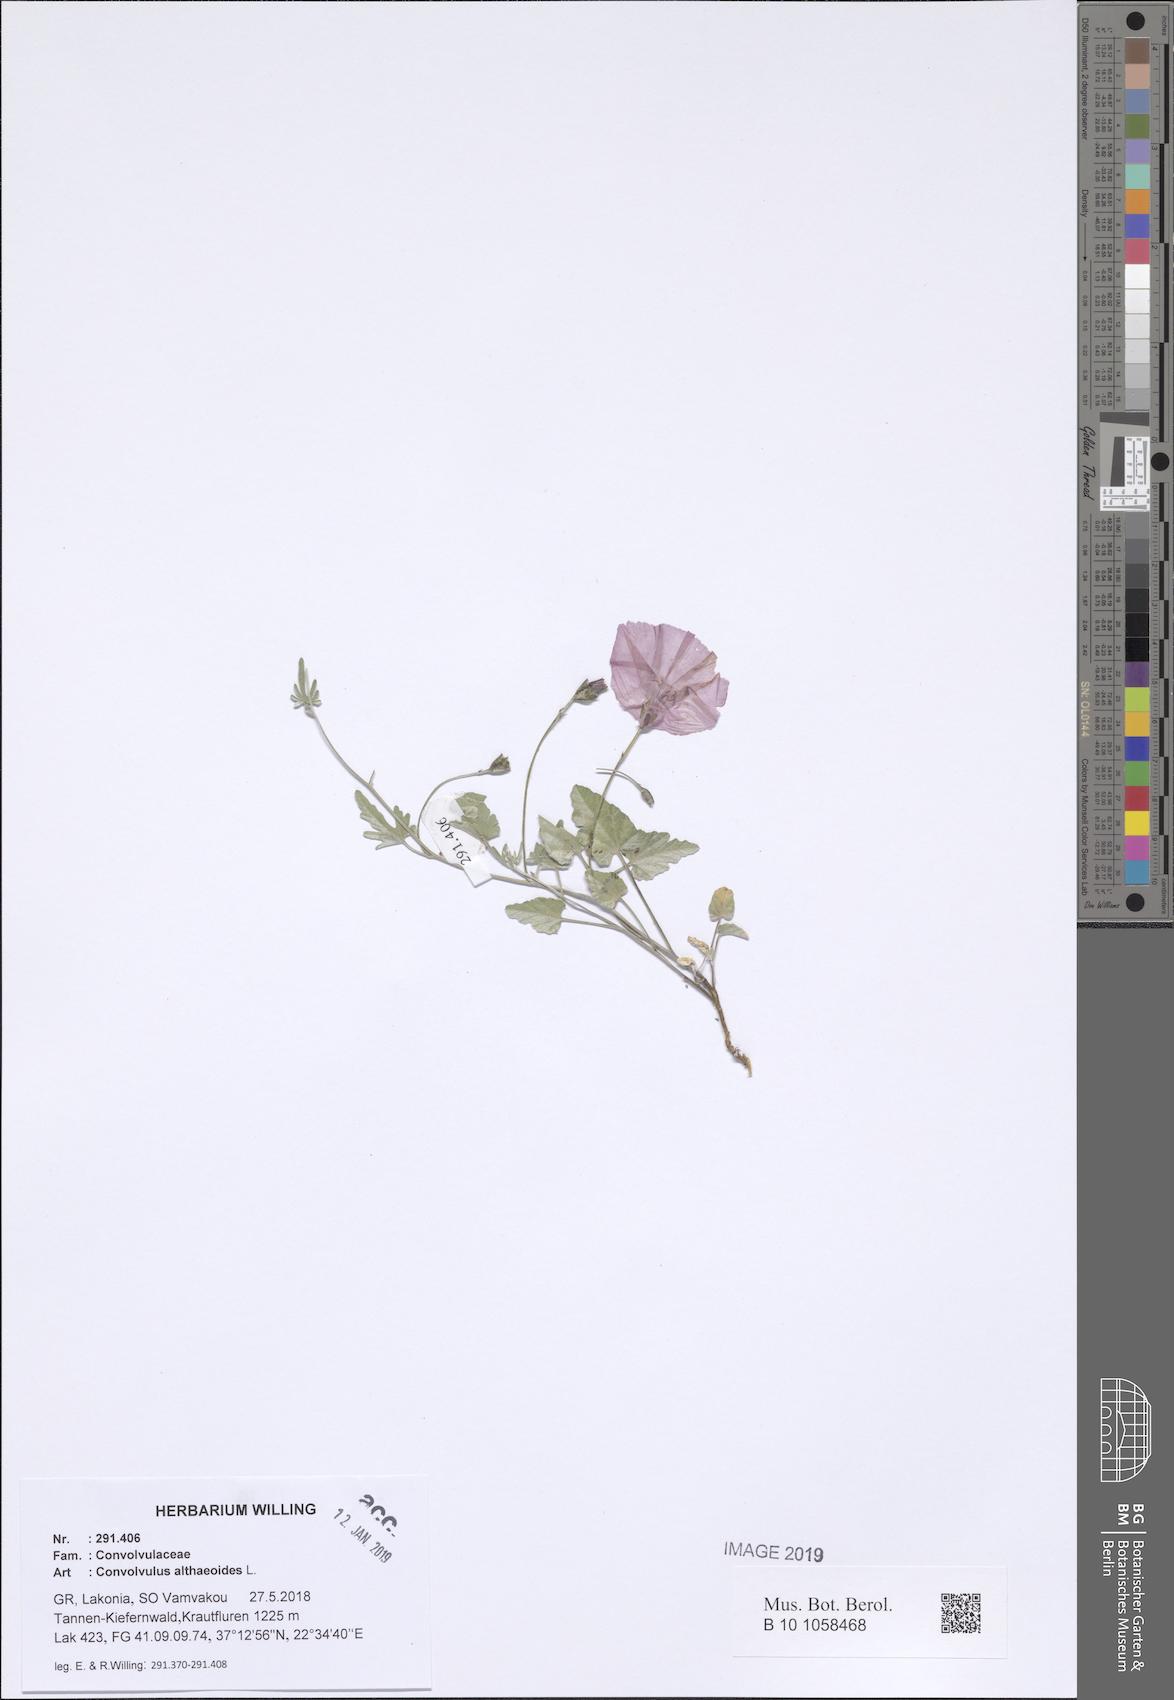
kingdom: Plantae
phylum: Tracheophyta
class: Magnoliopsida
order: Solanales
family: Convolvulaceae
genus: Convolvulus
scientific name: Convolvulus althaeoides
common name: Mallow bindweed
